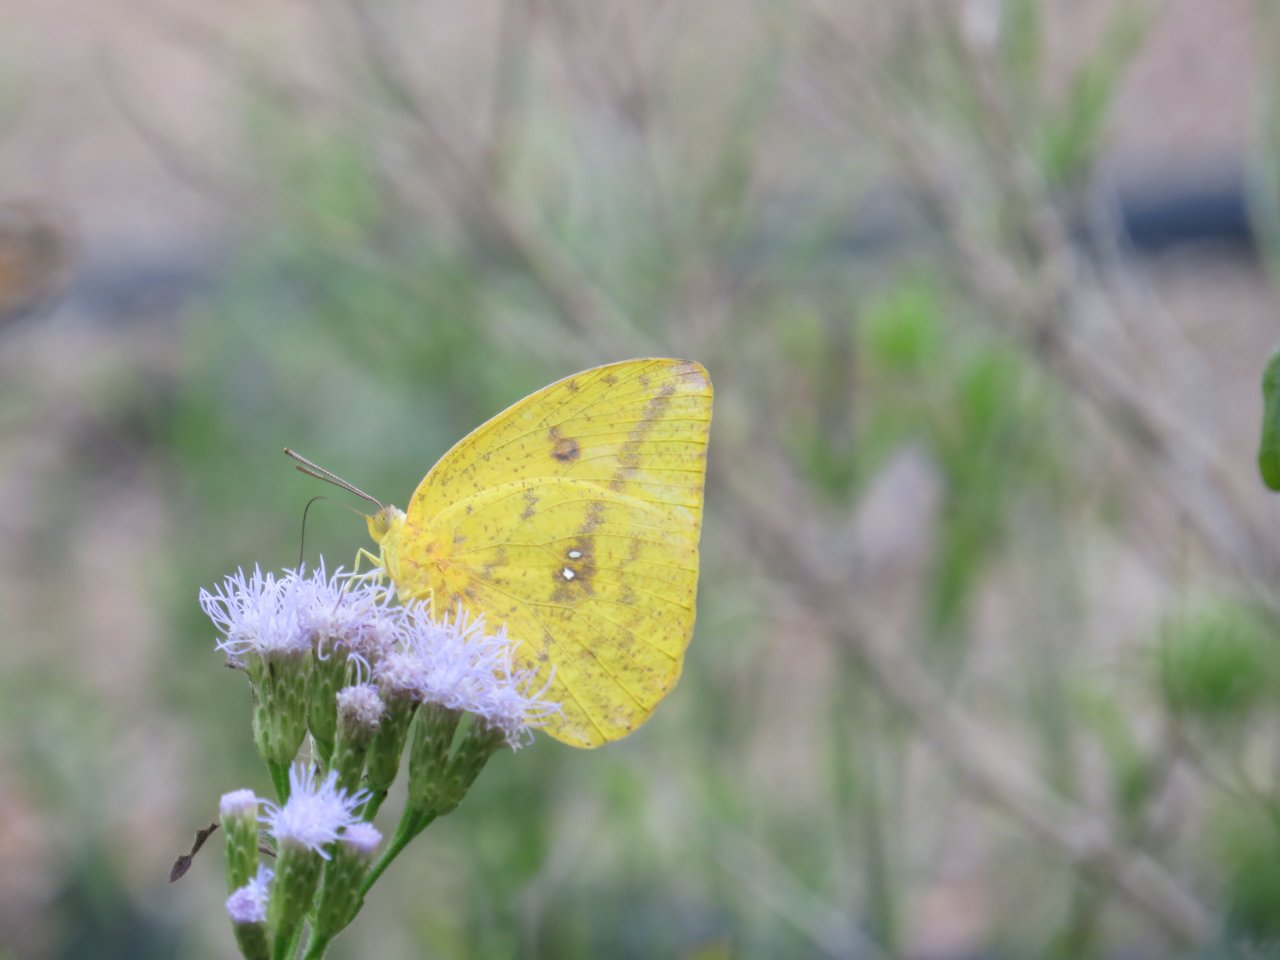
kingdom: Animalia
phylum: Arthropoda
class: Insecta
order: Lepidoptera
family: Pieridae
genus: Phoebis
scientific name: Phoebis agarithe
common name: Large Orange Sulphur
